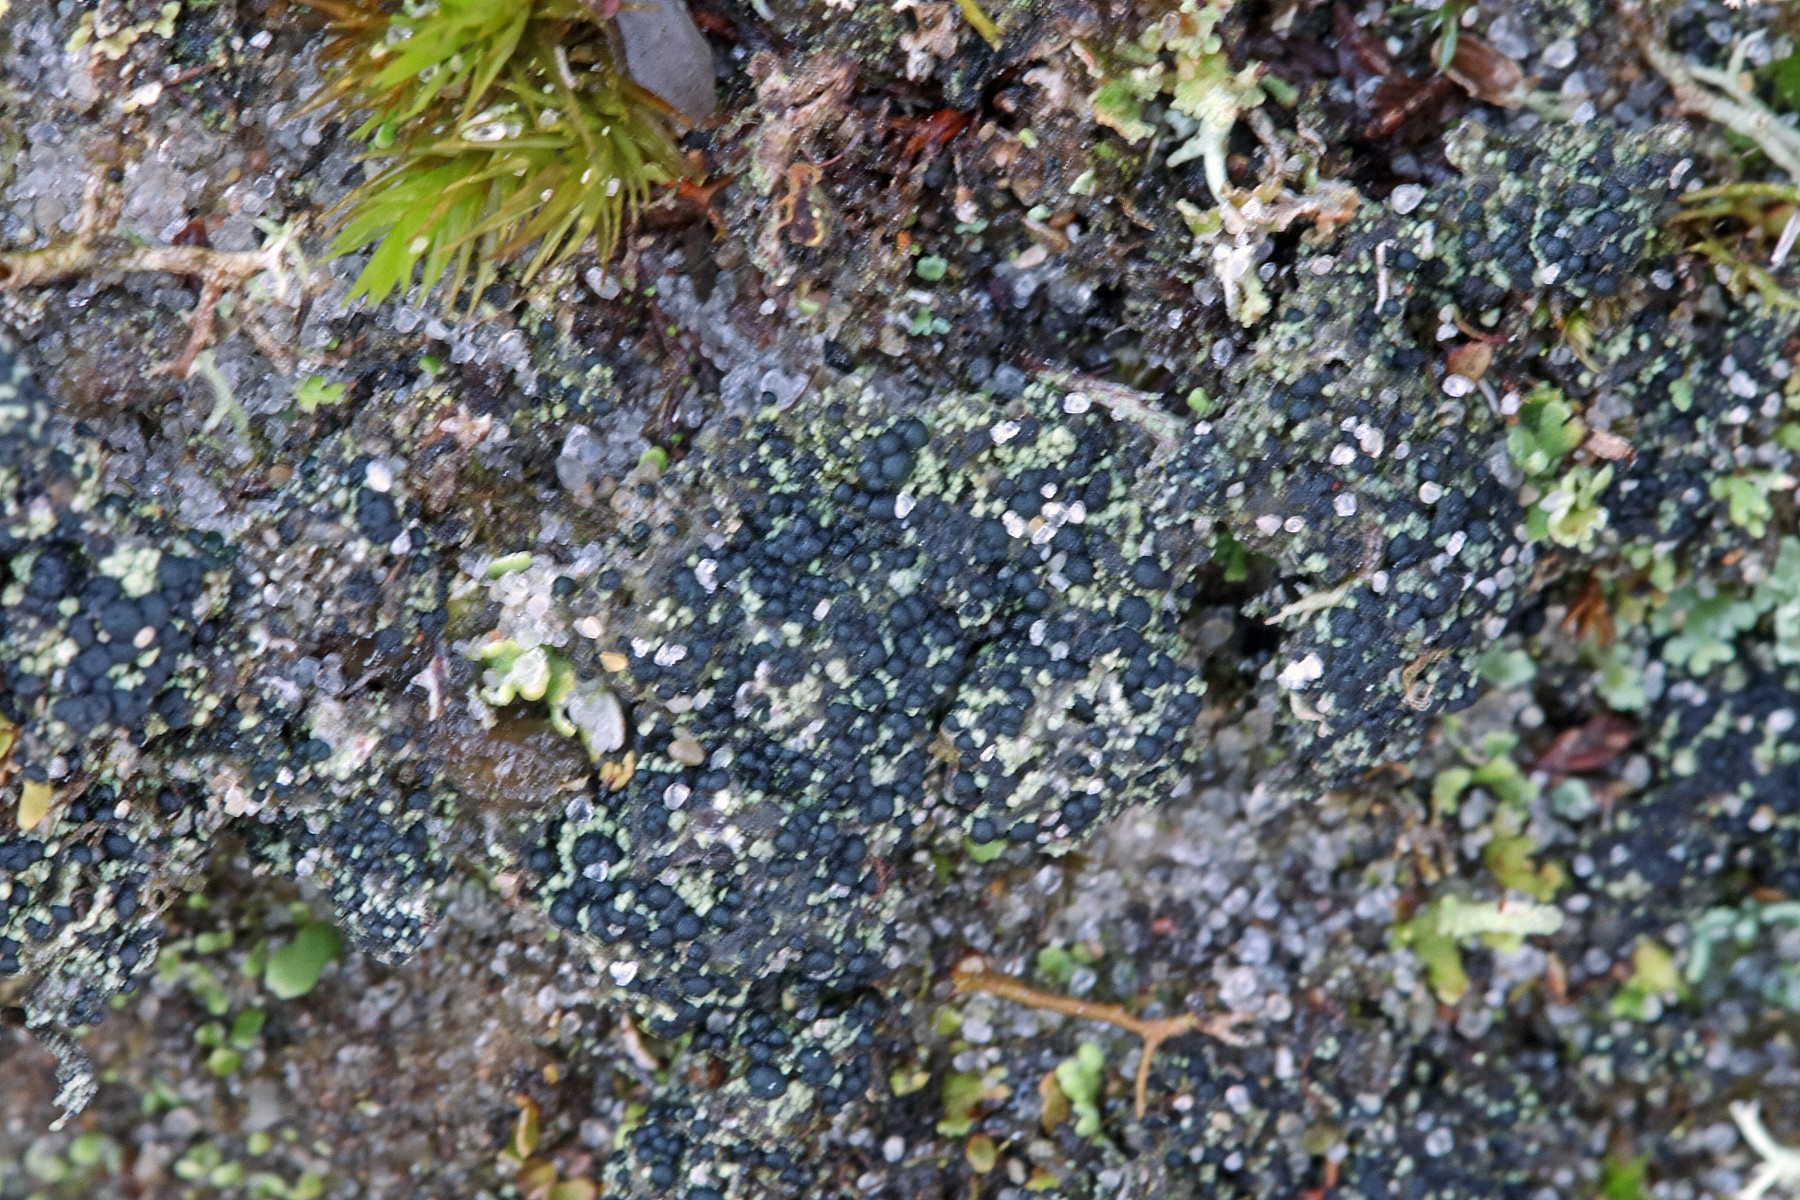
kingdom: Fungi
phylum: Ascomycota
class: Lecanoromycetes
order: Lecanorales
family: Byssolomataceae
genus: Micarea
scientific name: Micarea lignaria
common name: tørve-knaplav
